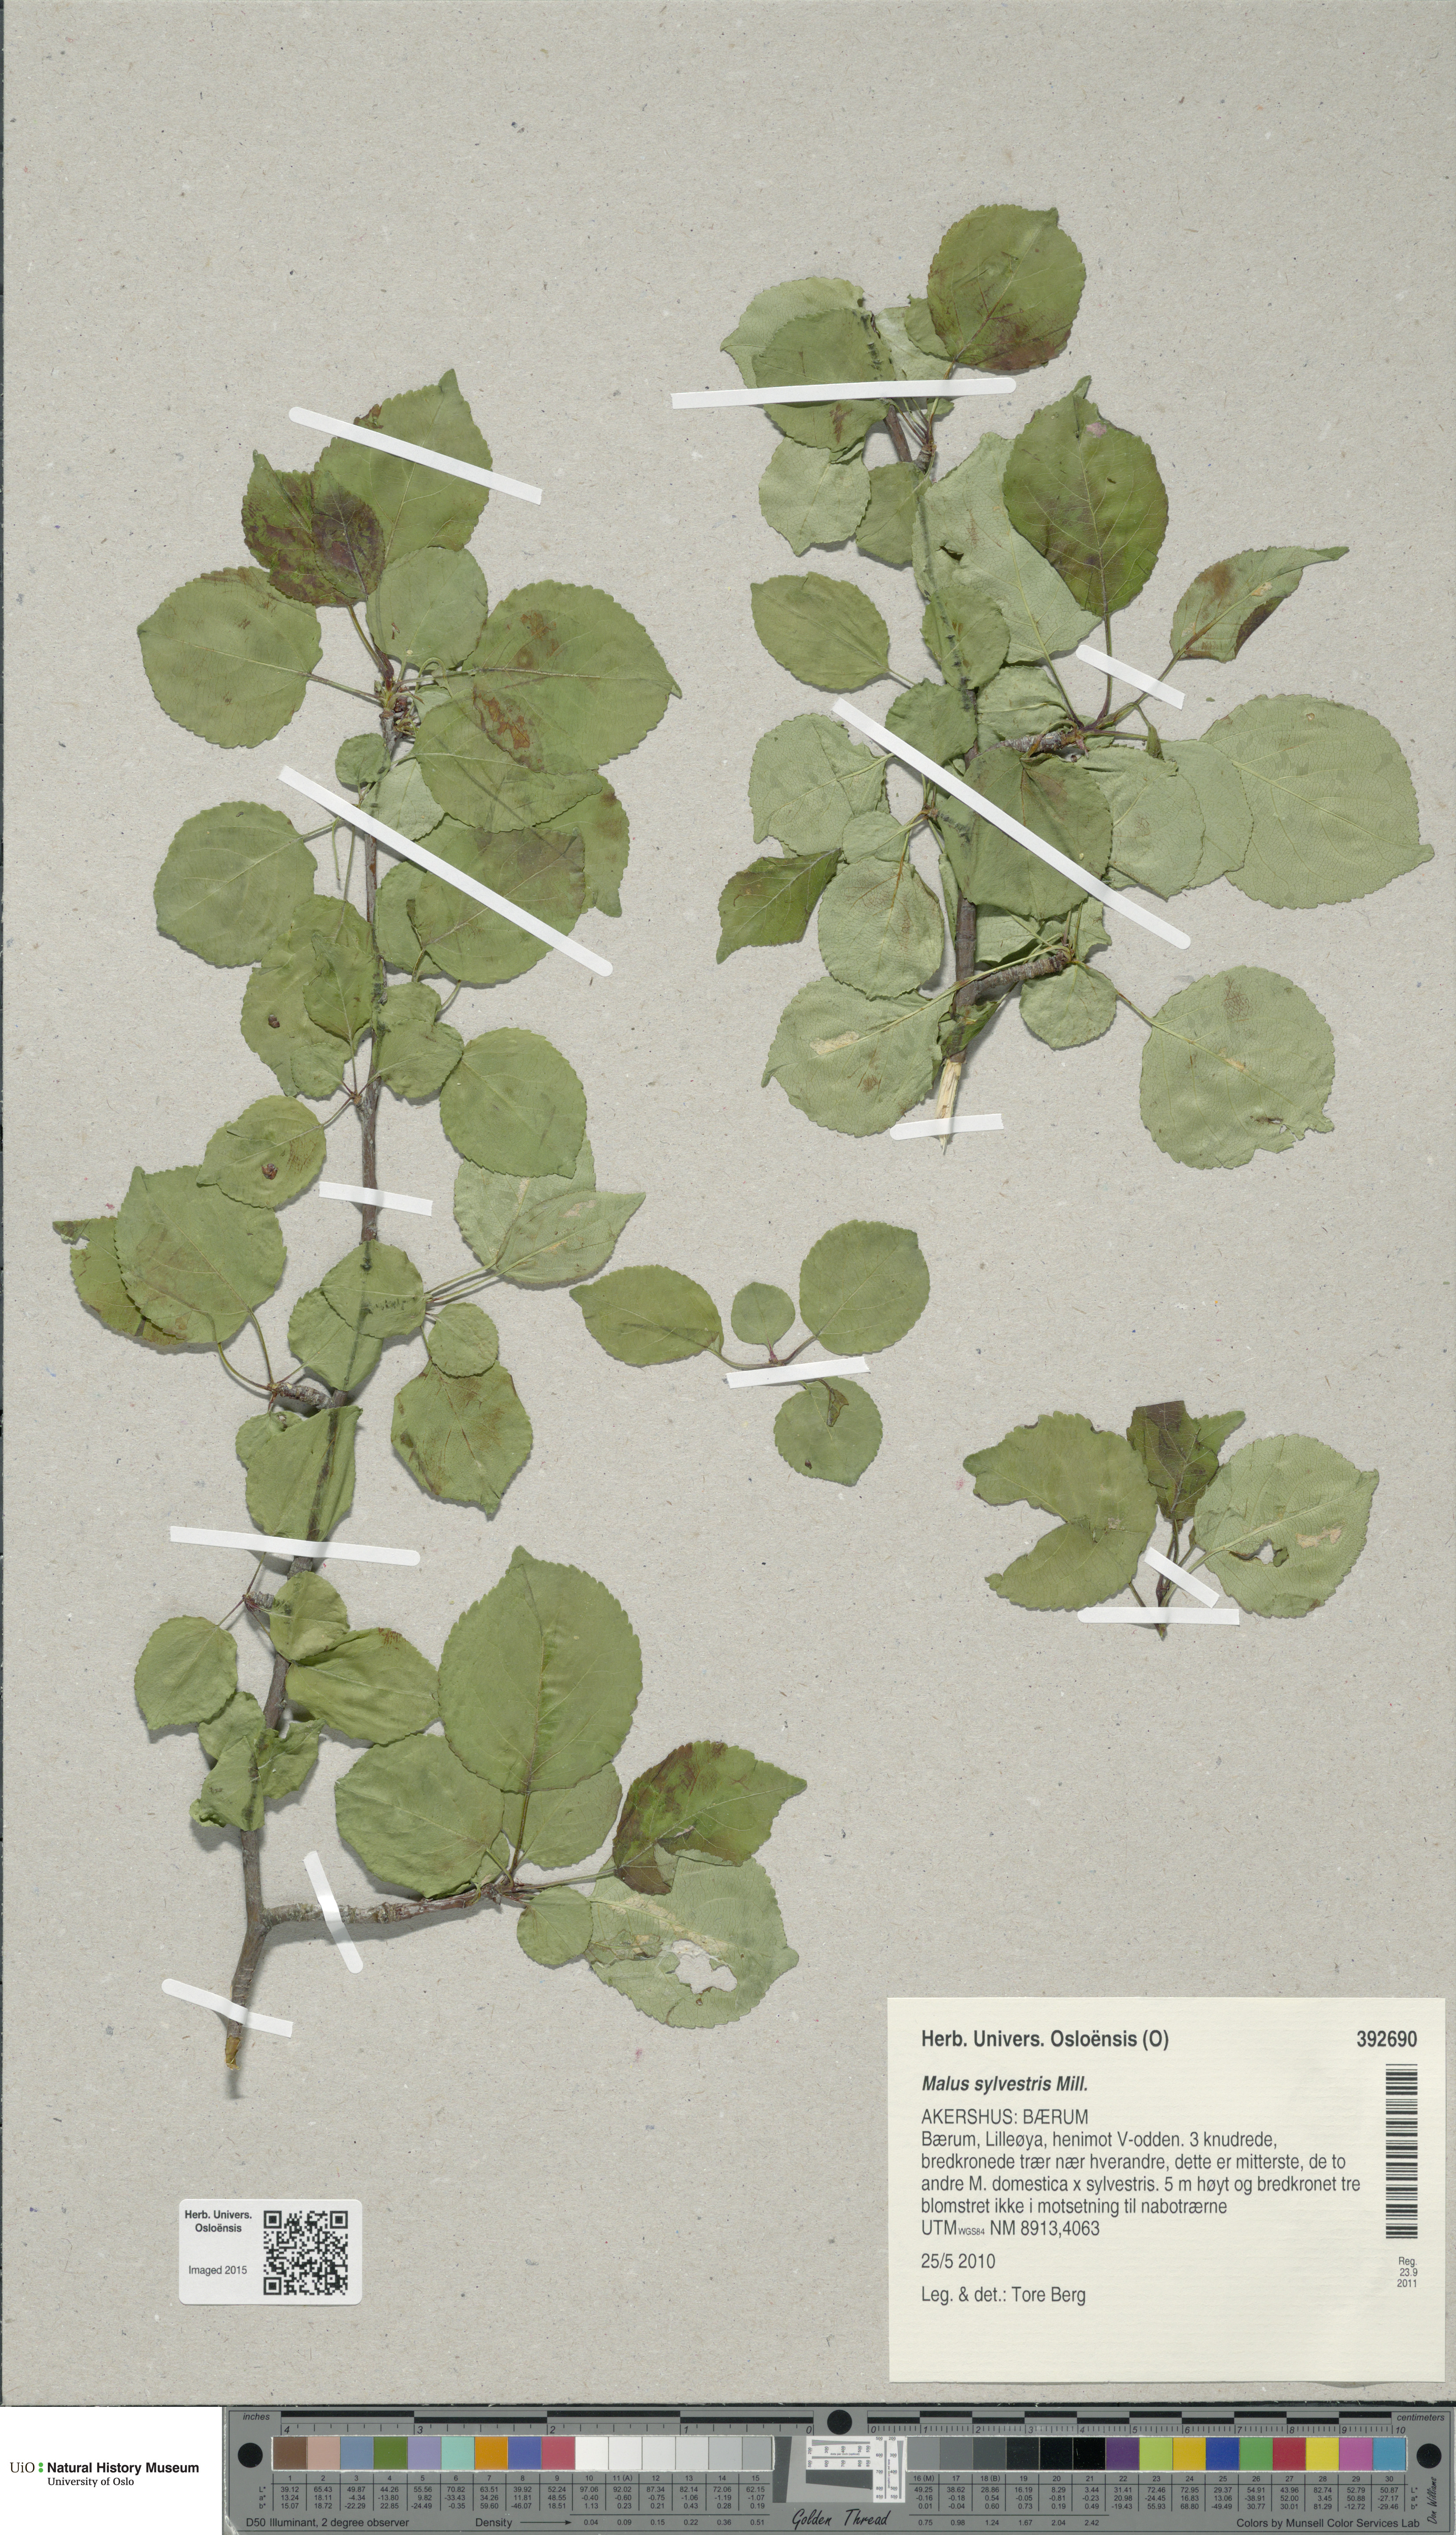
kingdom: Plantae
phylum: Tracheophyta
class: Magnoliopsida
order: Rosales
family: Rosaceae
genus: Malus
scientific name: Malus sylvestris
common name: Crab apple
